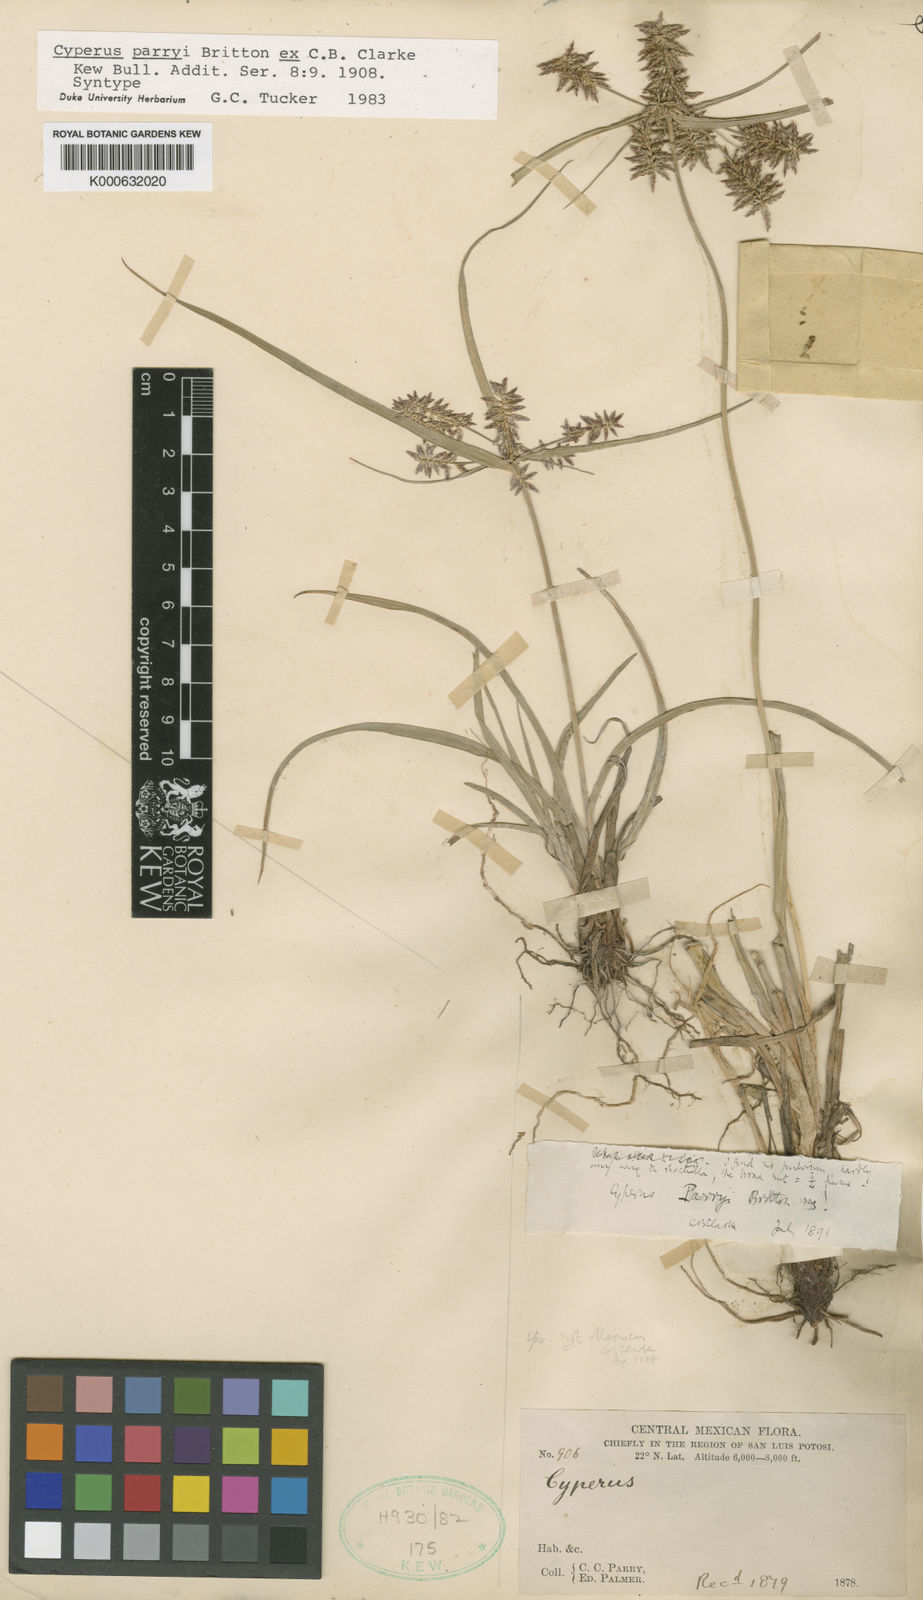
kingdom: Plantae
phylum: Tracheophyta
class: Liliopsida
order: Poales
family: Cyperaceae
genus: Cyperus
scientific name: Cyperus spectabilis
